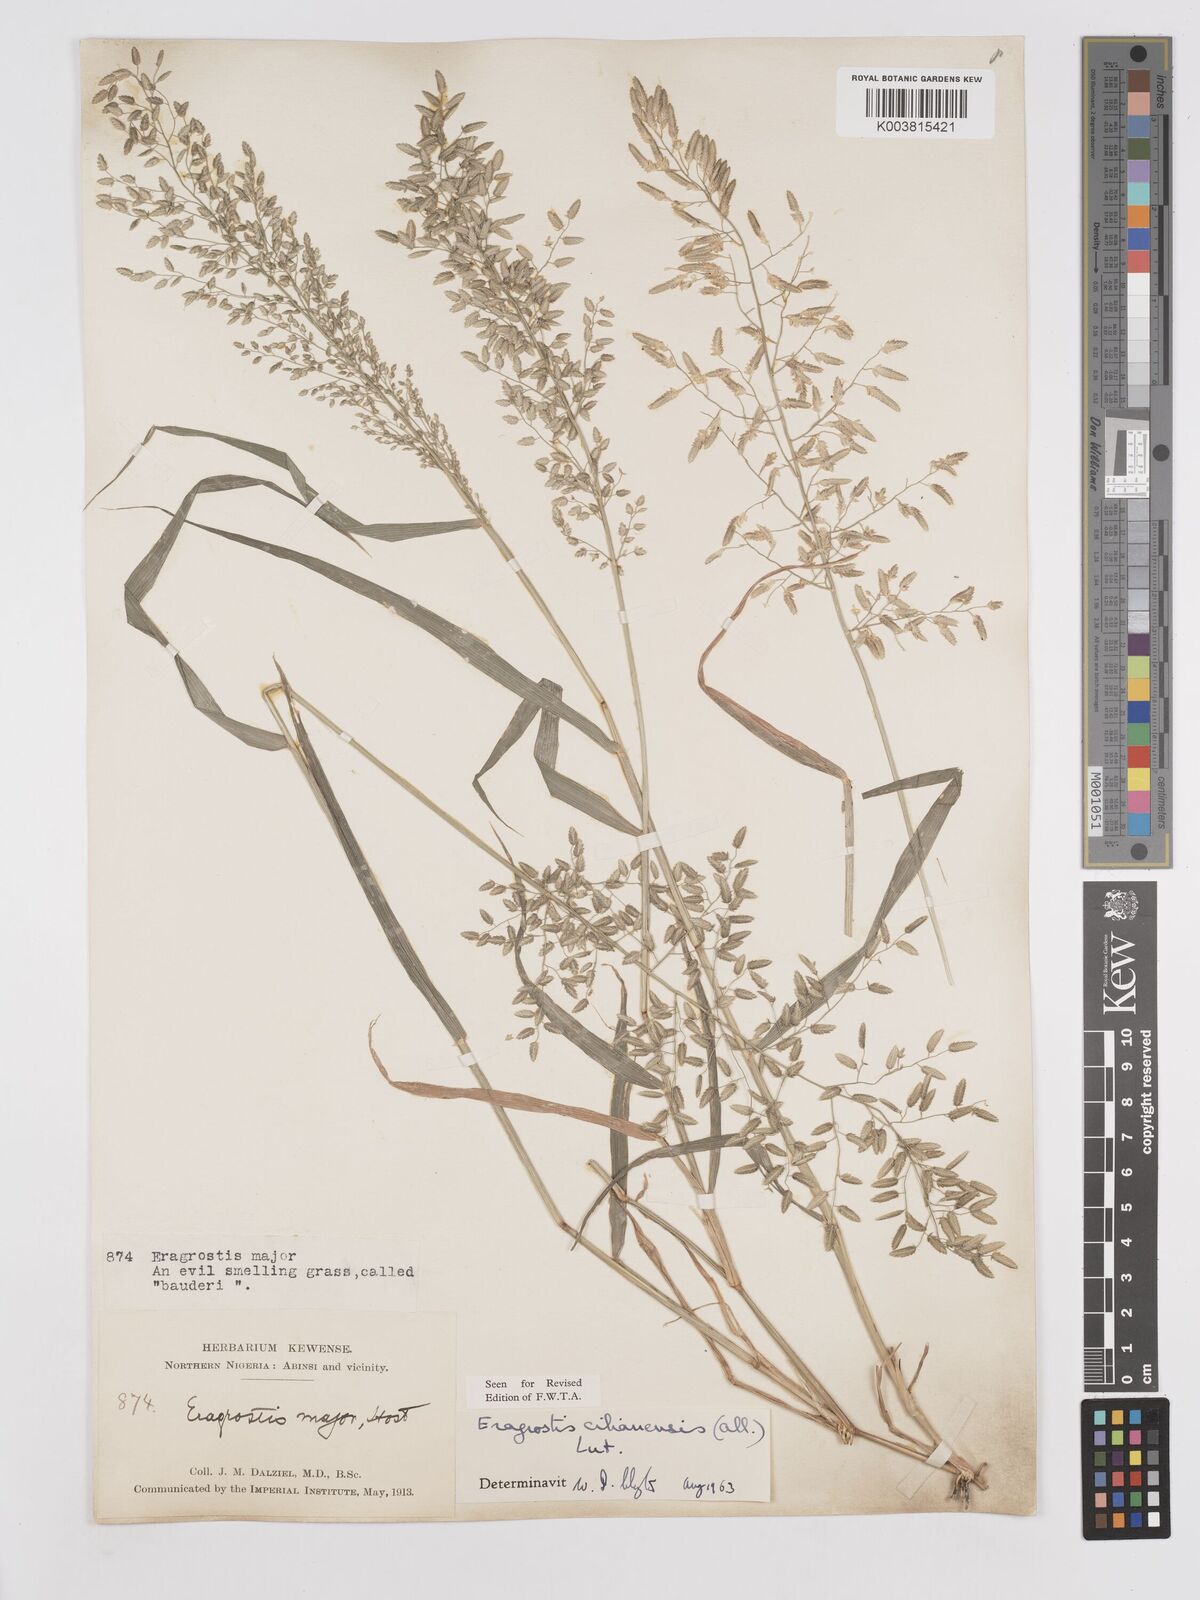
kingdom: Plantae
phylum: Tracheophyta
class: Liliopsida
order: Poales
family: Poaceae
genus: Eragrostis
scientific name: Eragrostis cilianensis
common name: Stinkgrass
